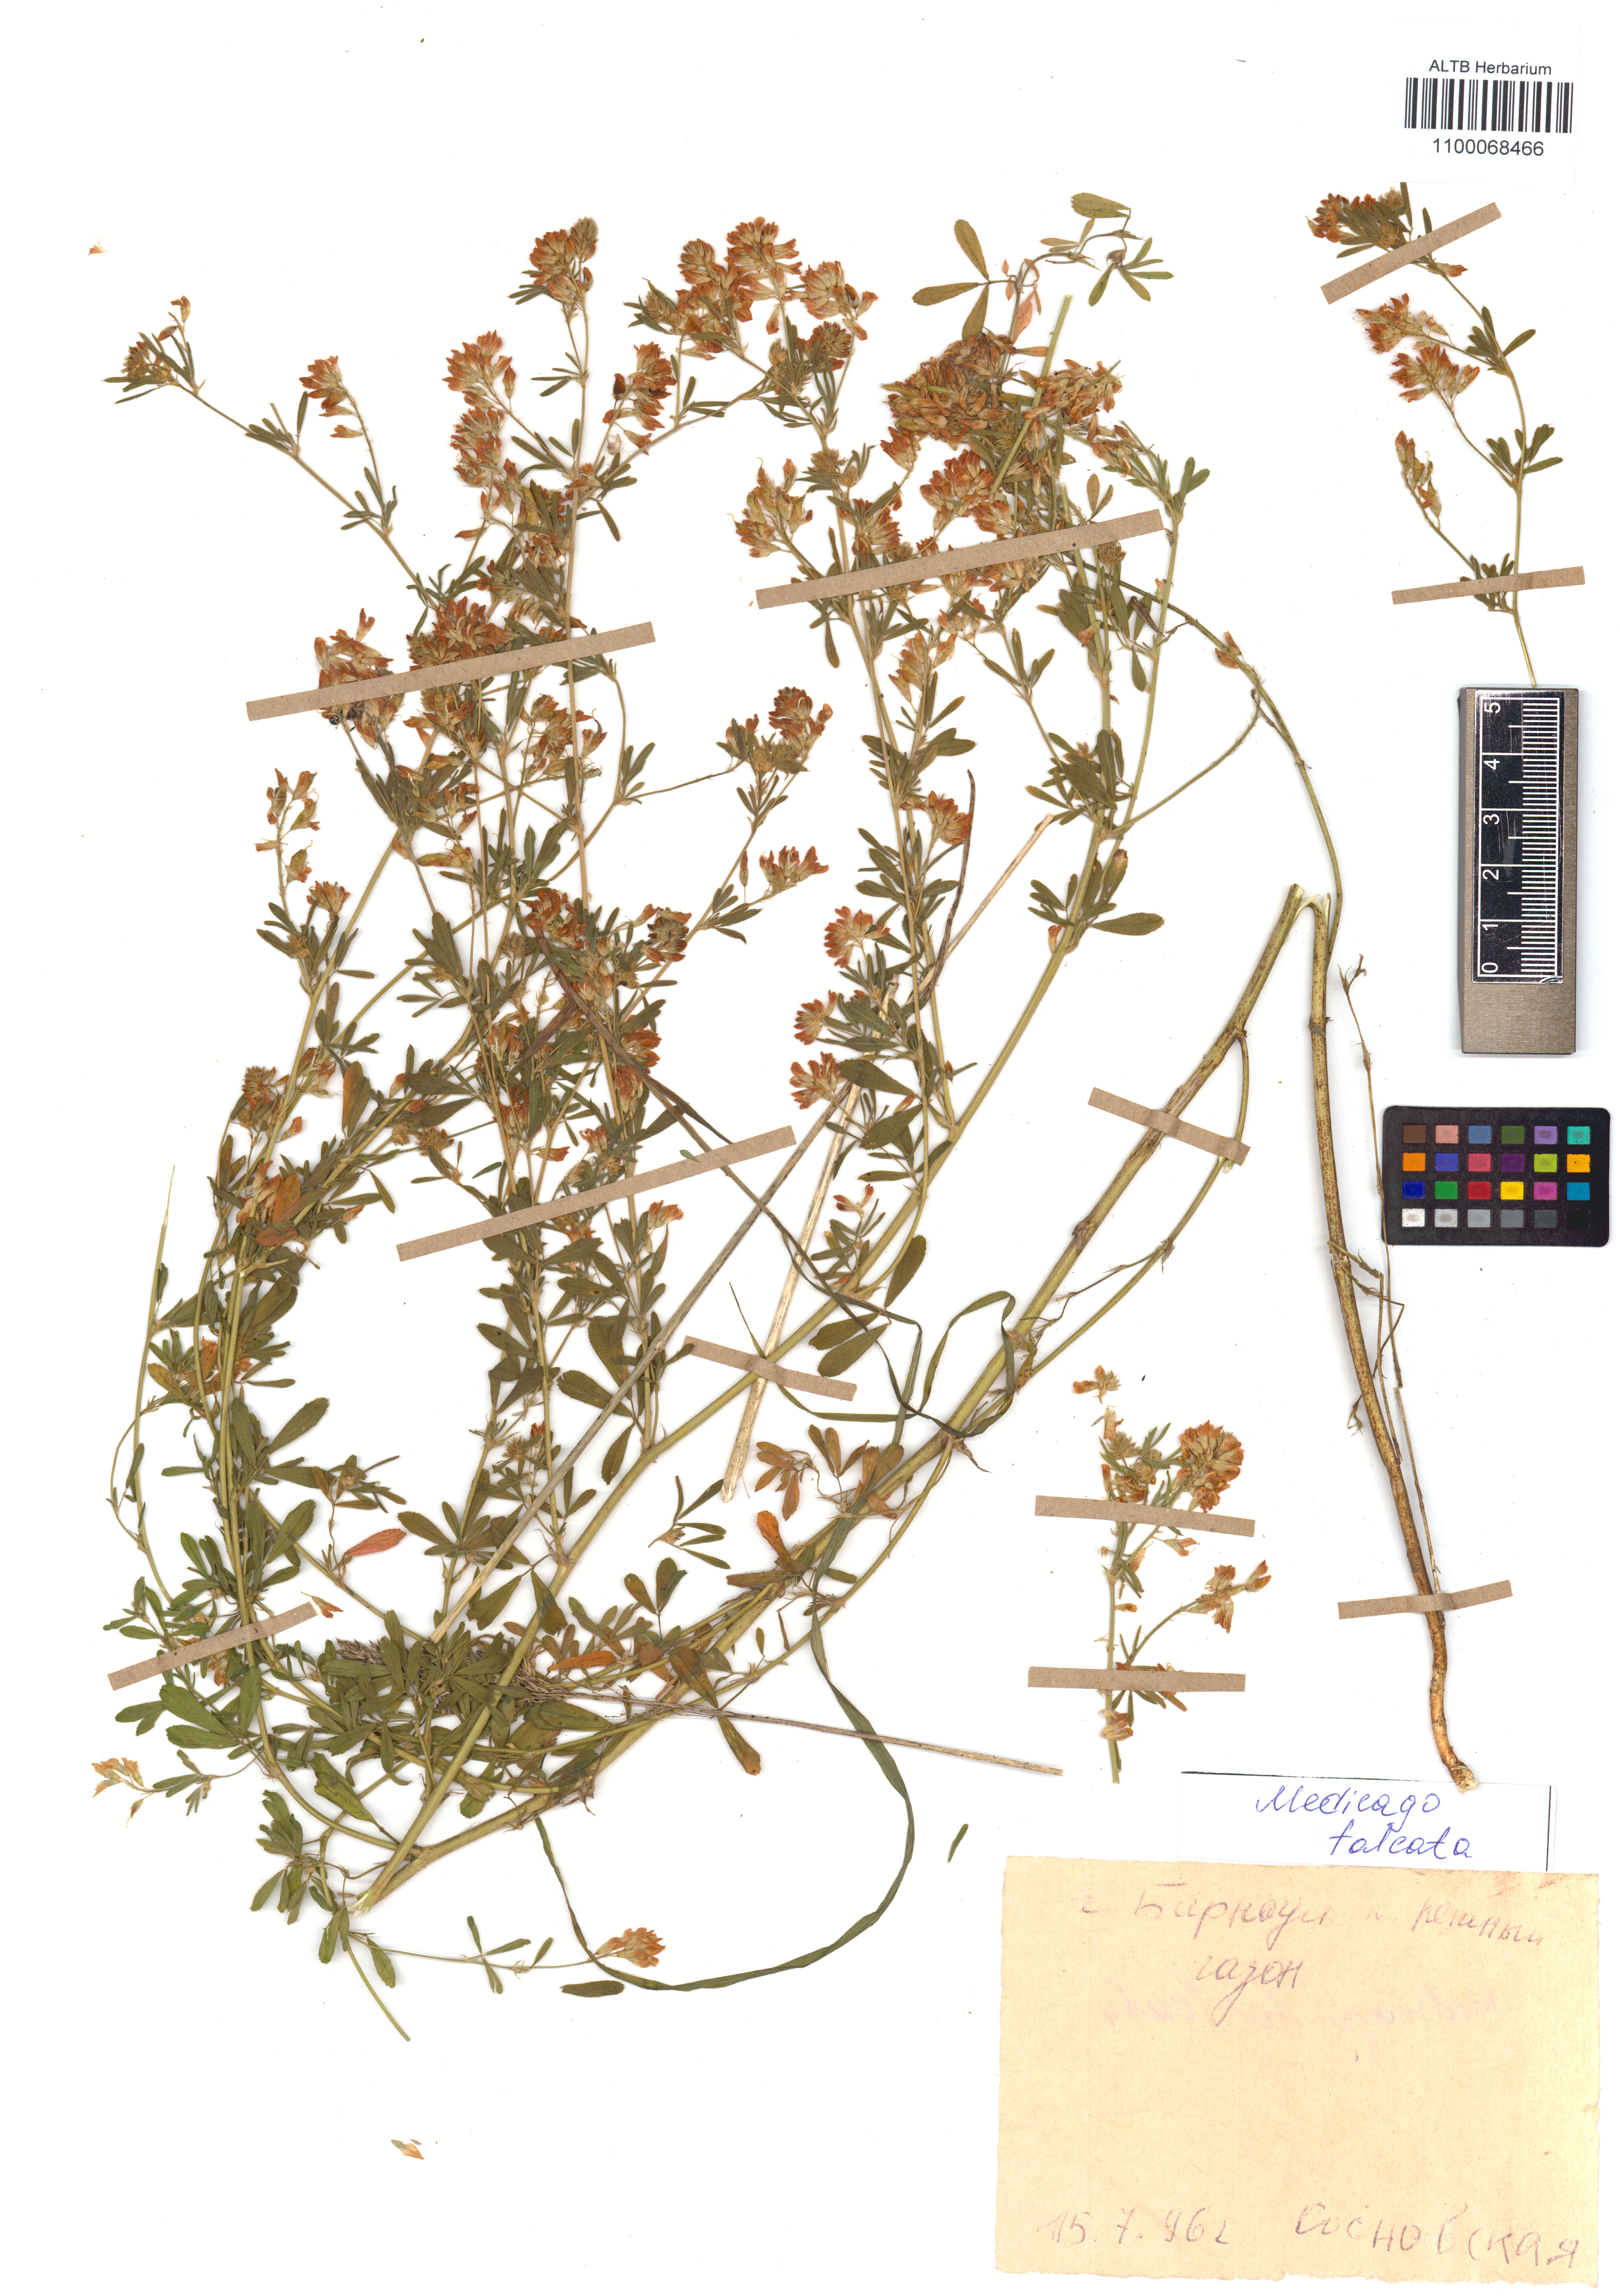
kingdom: Plantae
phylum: Tracheophyta
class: Magnoliopsida
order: Fabales
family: Fabaceae
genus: Medicago
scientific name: Medicago falcata
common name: Sickle medick
